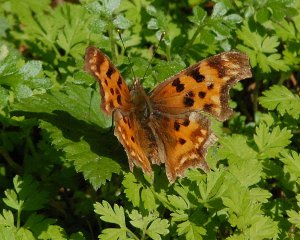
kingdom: Animalia
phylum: Arthropoda
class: Insecta
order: Lepidoptera
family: Nymphalidae
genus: Polygonia
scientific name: Polygonia satyrus
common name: Satyr Comma
